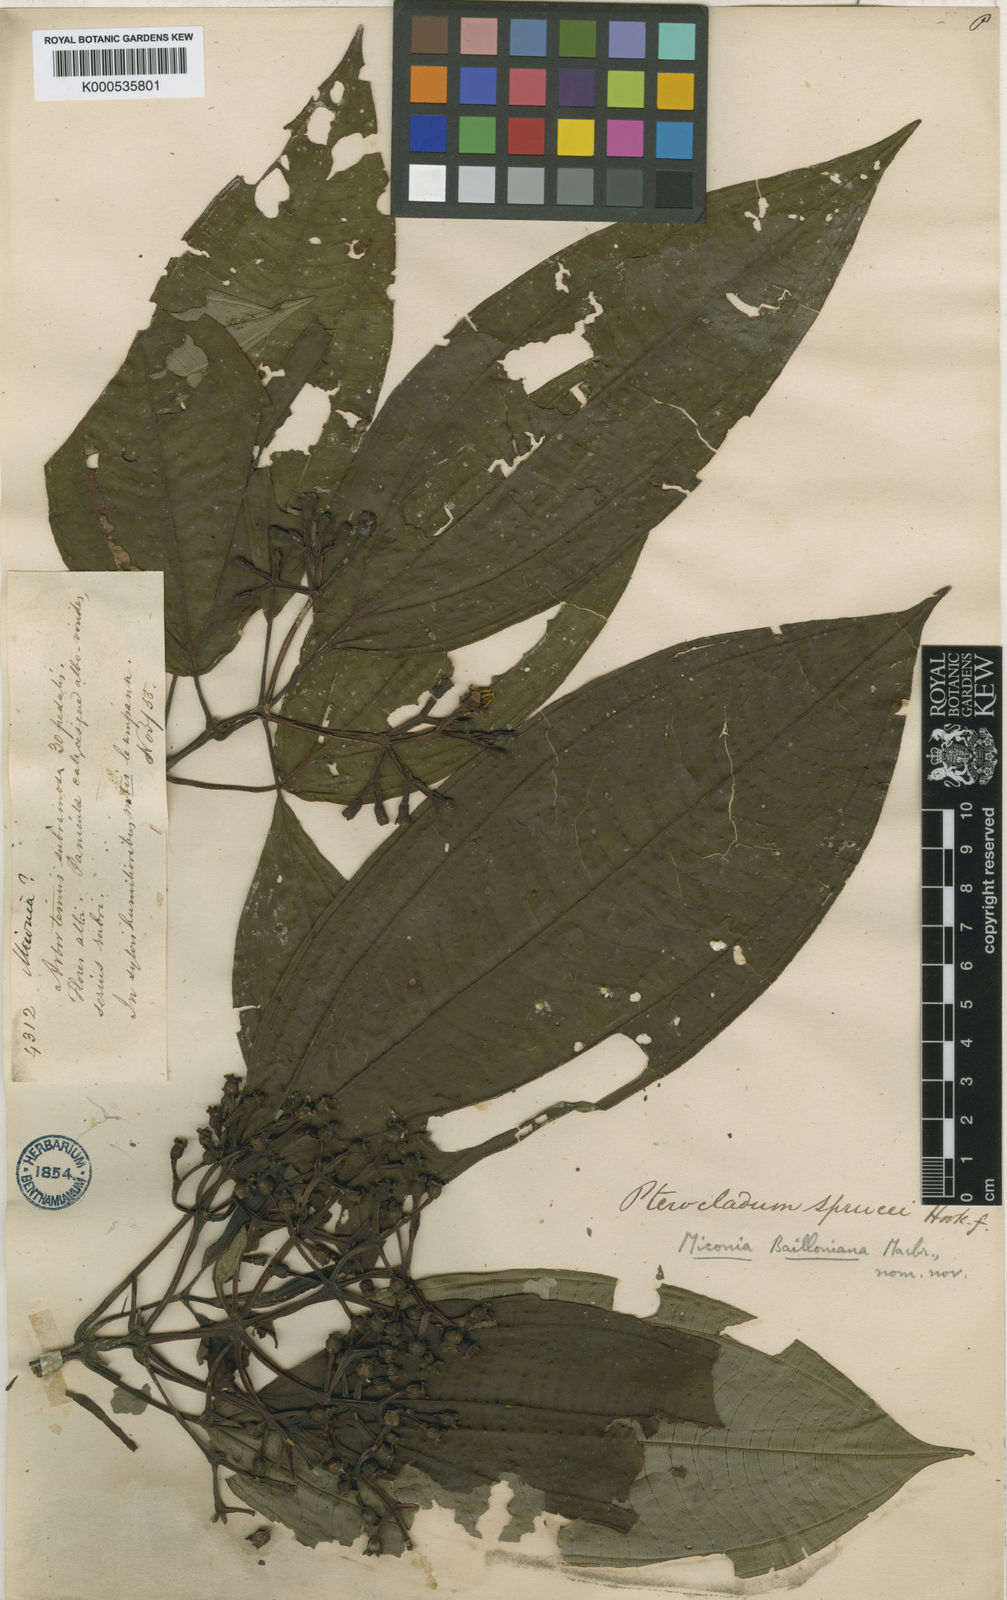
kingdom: Plantae
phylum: Tracheophyta
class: Magnoliopsida
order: Myrtales
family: Melastomataceae
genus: Miconia
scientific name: Miconia bailloniana
